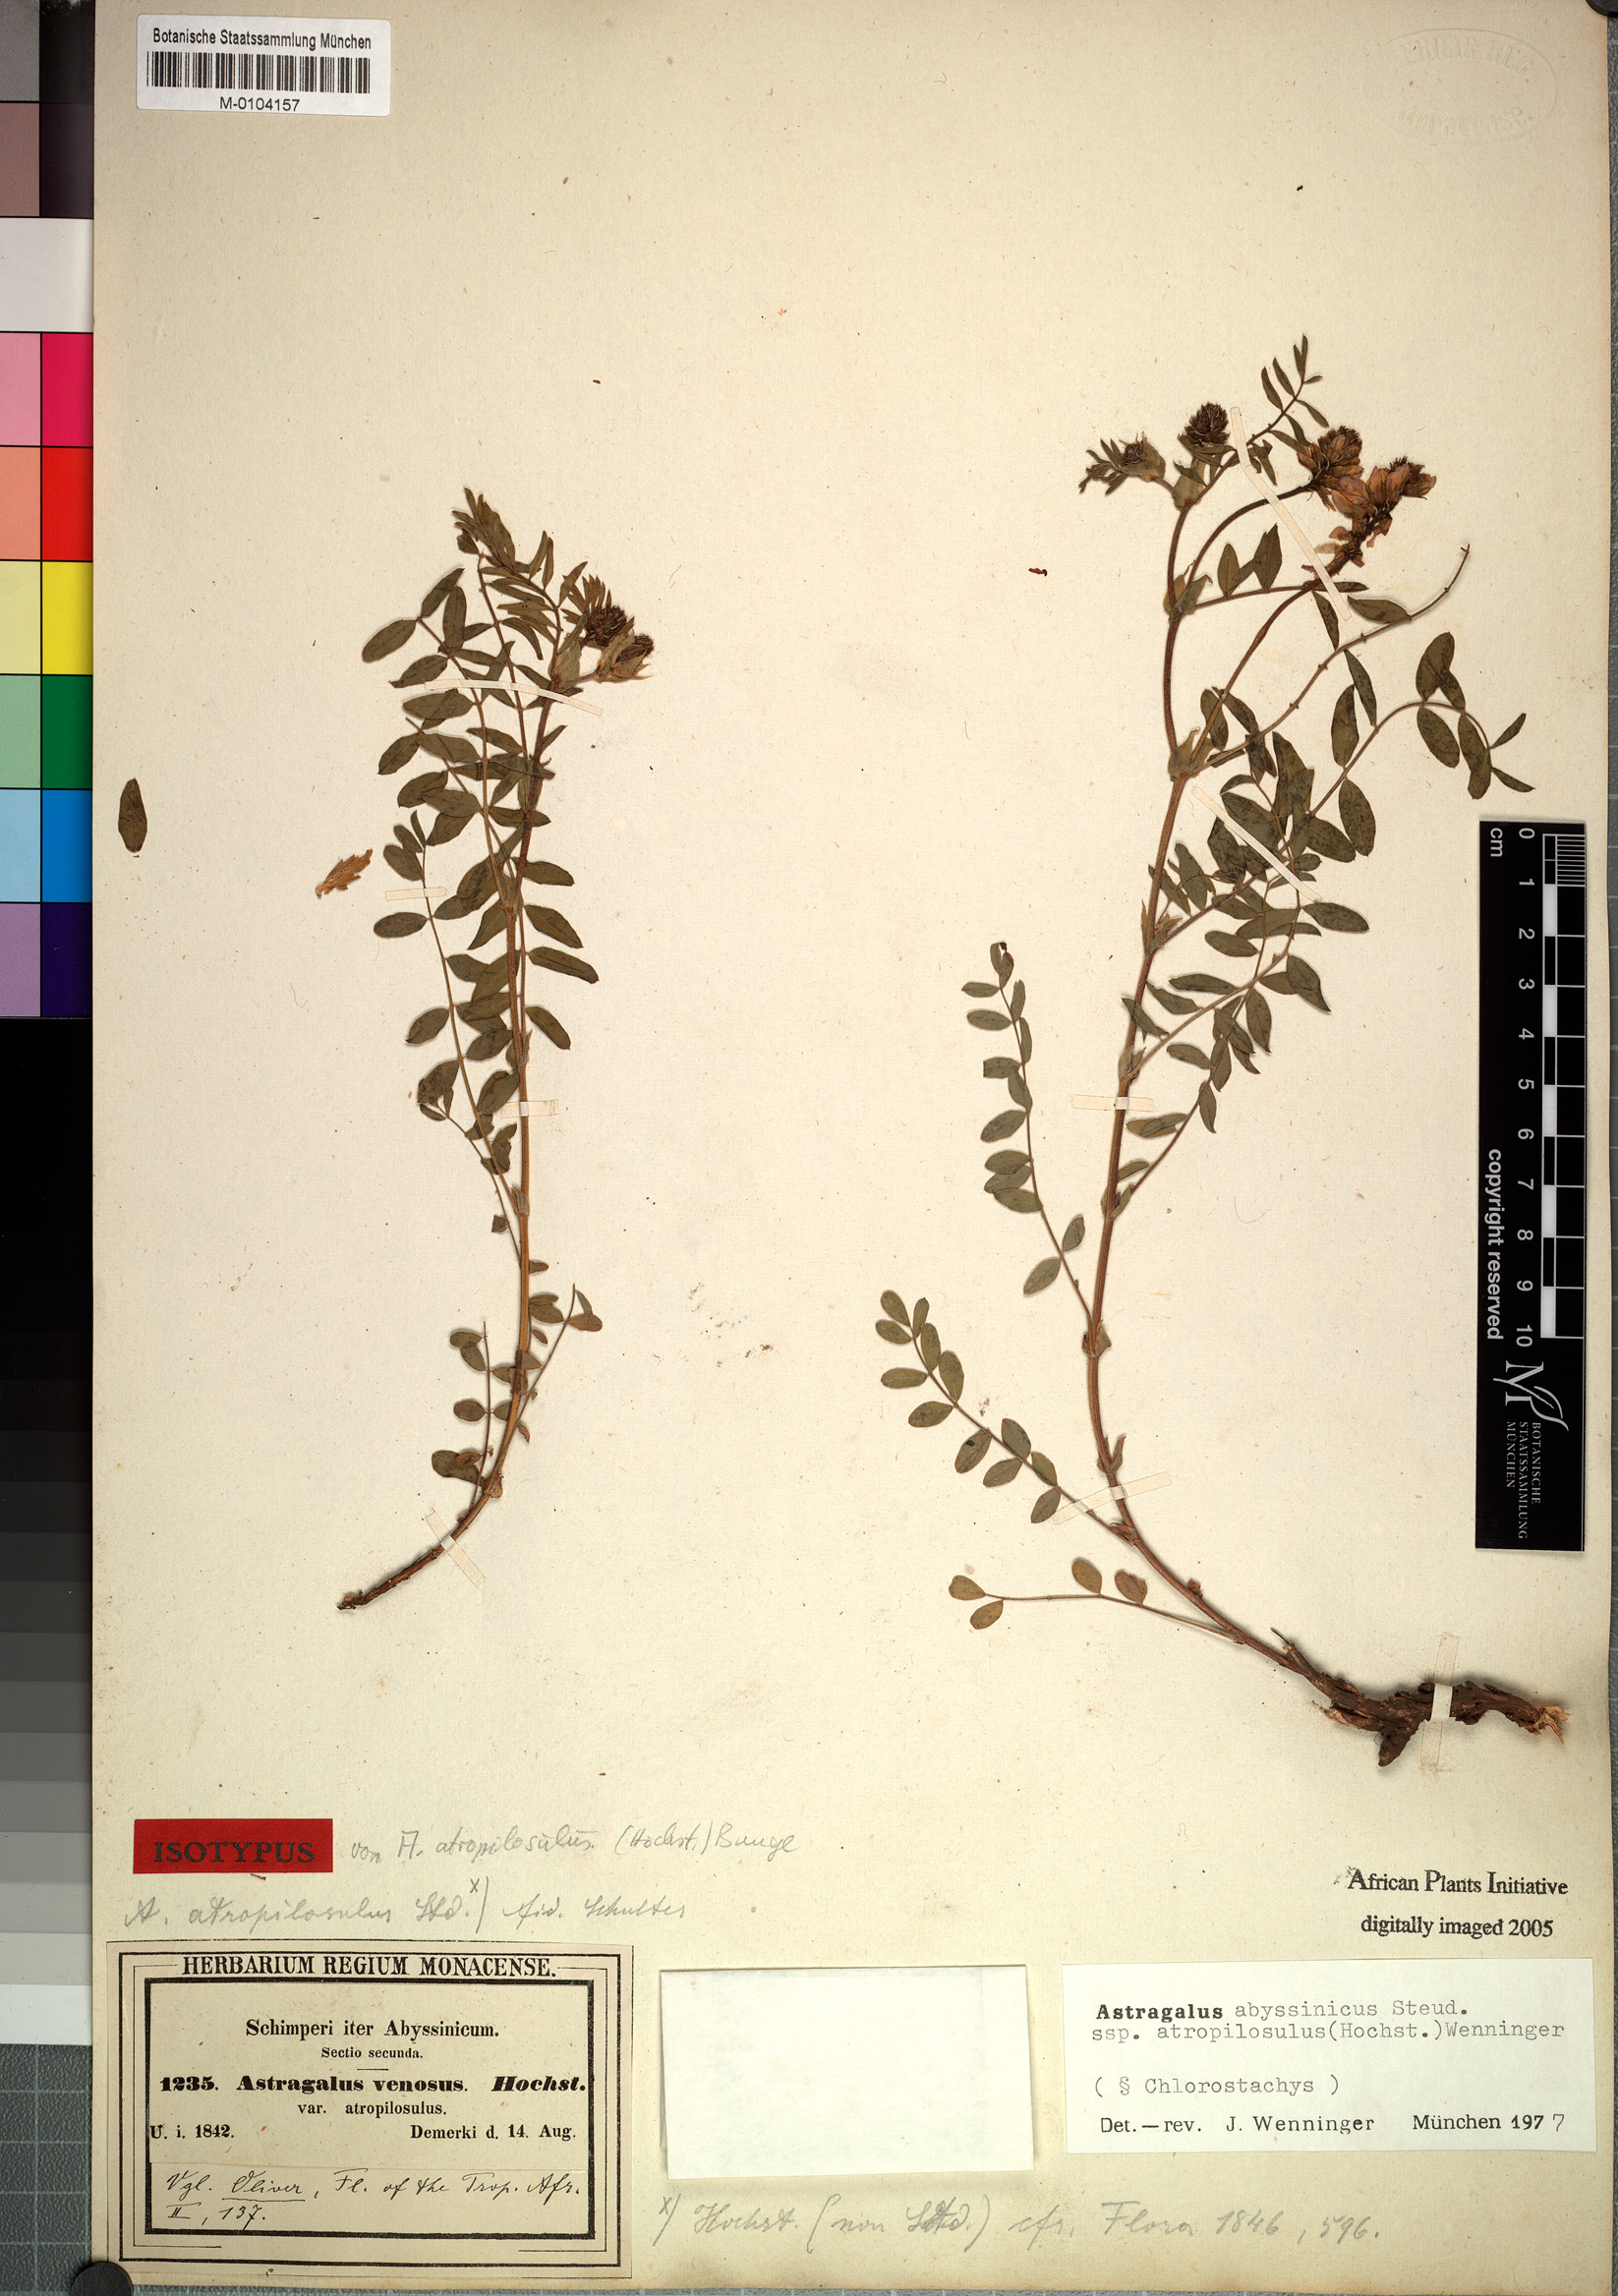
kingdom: Plantae
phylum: Tracheophyta
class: Magnoliopsida
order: Fabales
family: Fabaceae
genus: Astragalus
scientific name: Astragalus atropilosulus
